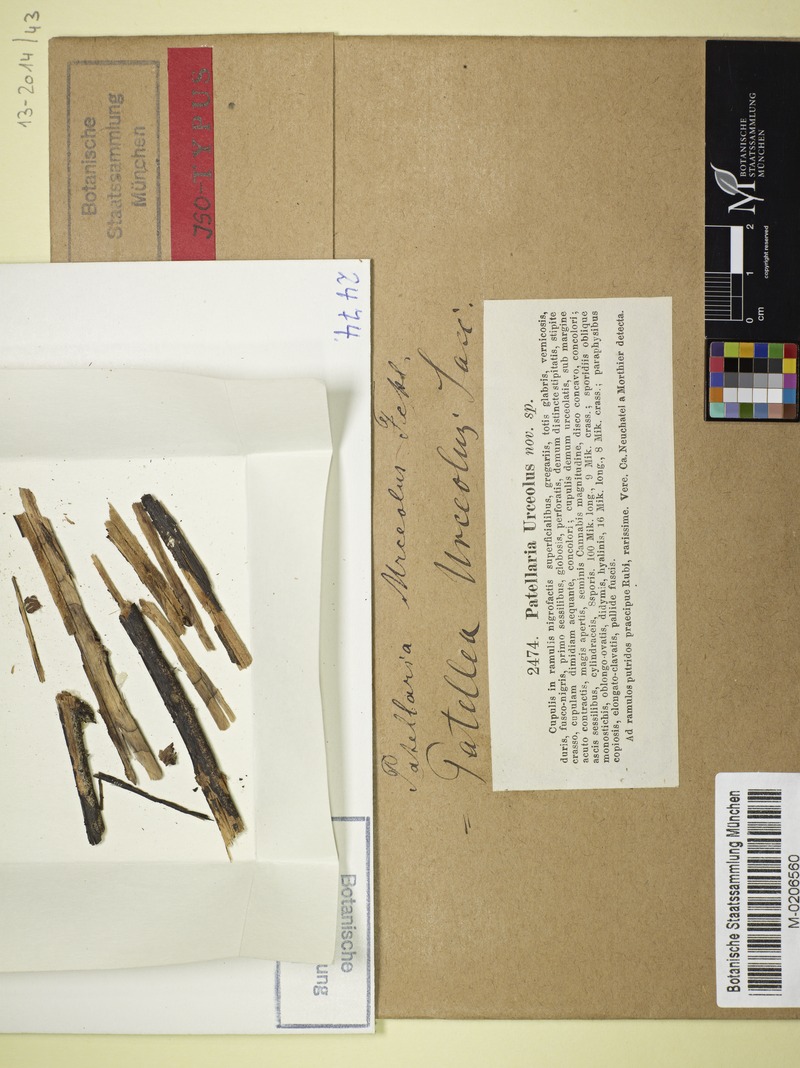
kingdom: Fungi
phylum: Ascomycota
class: Leotiomycetes
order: Helotiales
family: Rutstroemiaceae
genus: Rutstroemia
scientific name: Rutstroemia urceolus
